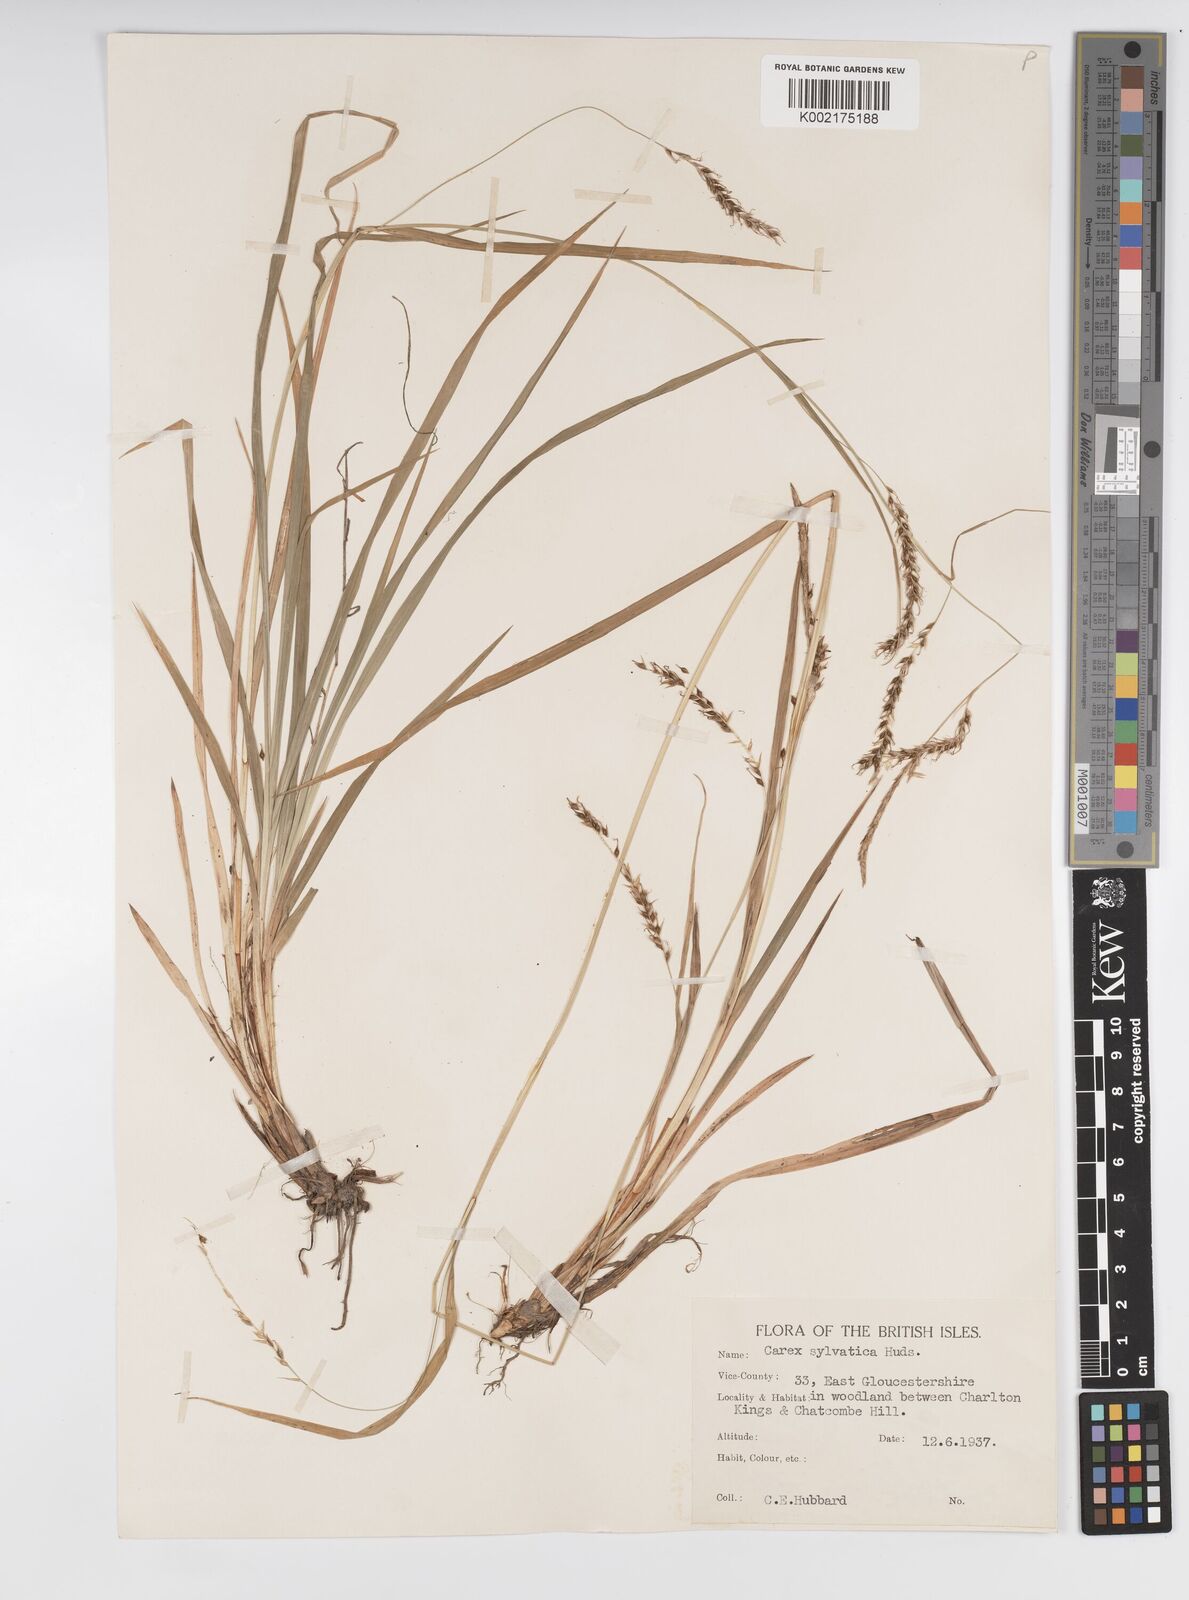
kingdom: Plantae
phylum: Tracheophyta
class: Liliopsida
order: Poales
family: Cyperaceae
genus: Carex
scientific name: Carex sylvatica
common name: Wood-sedge
